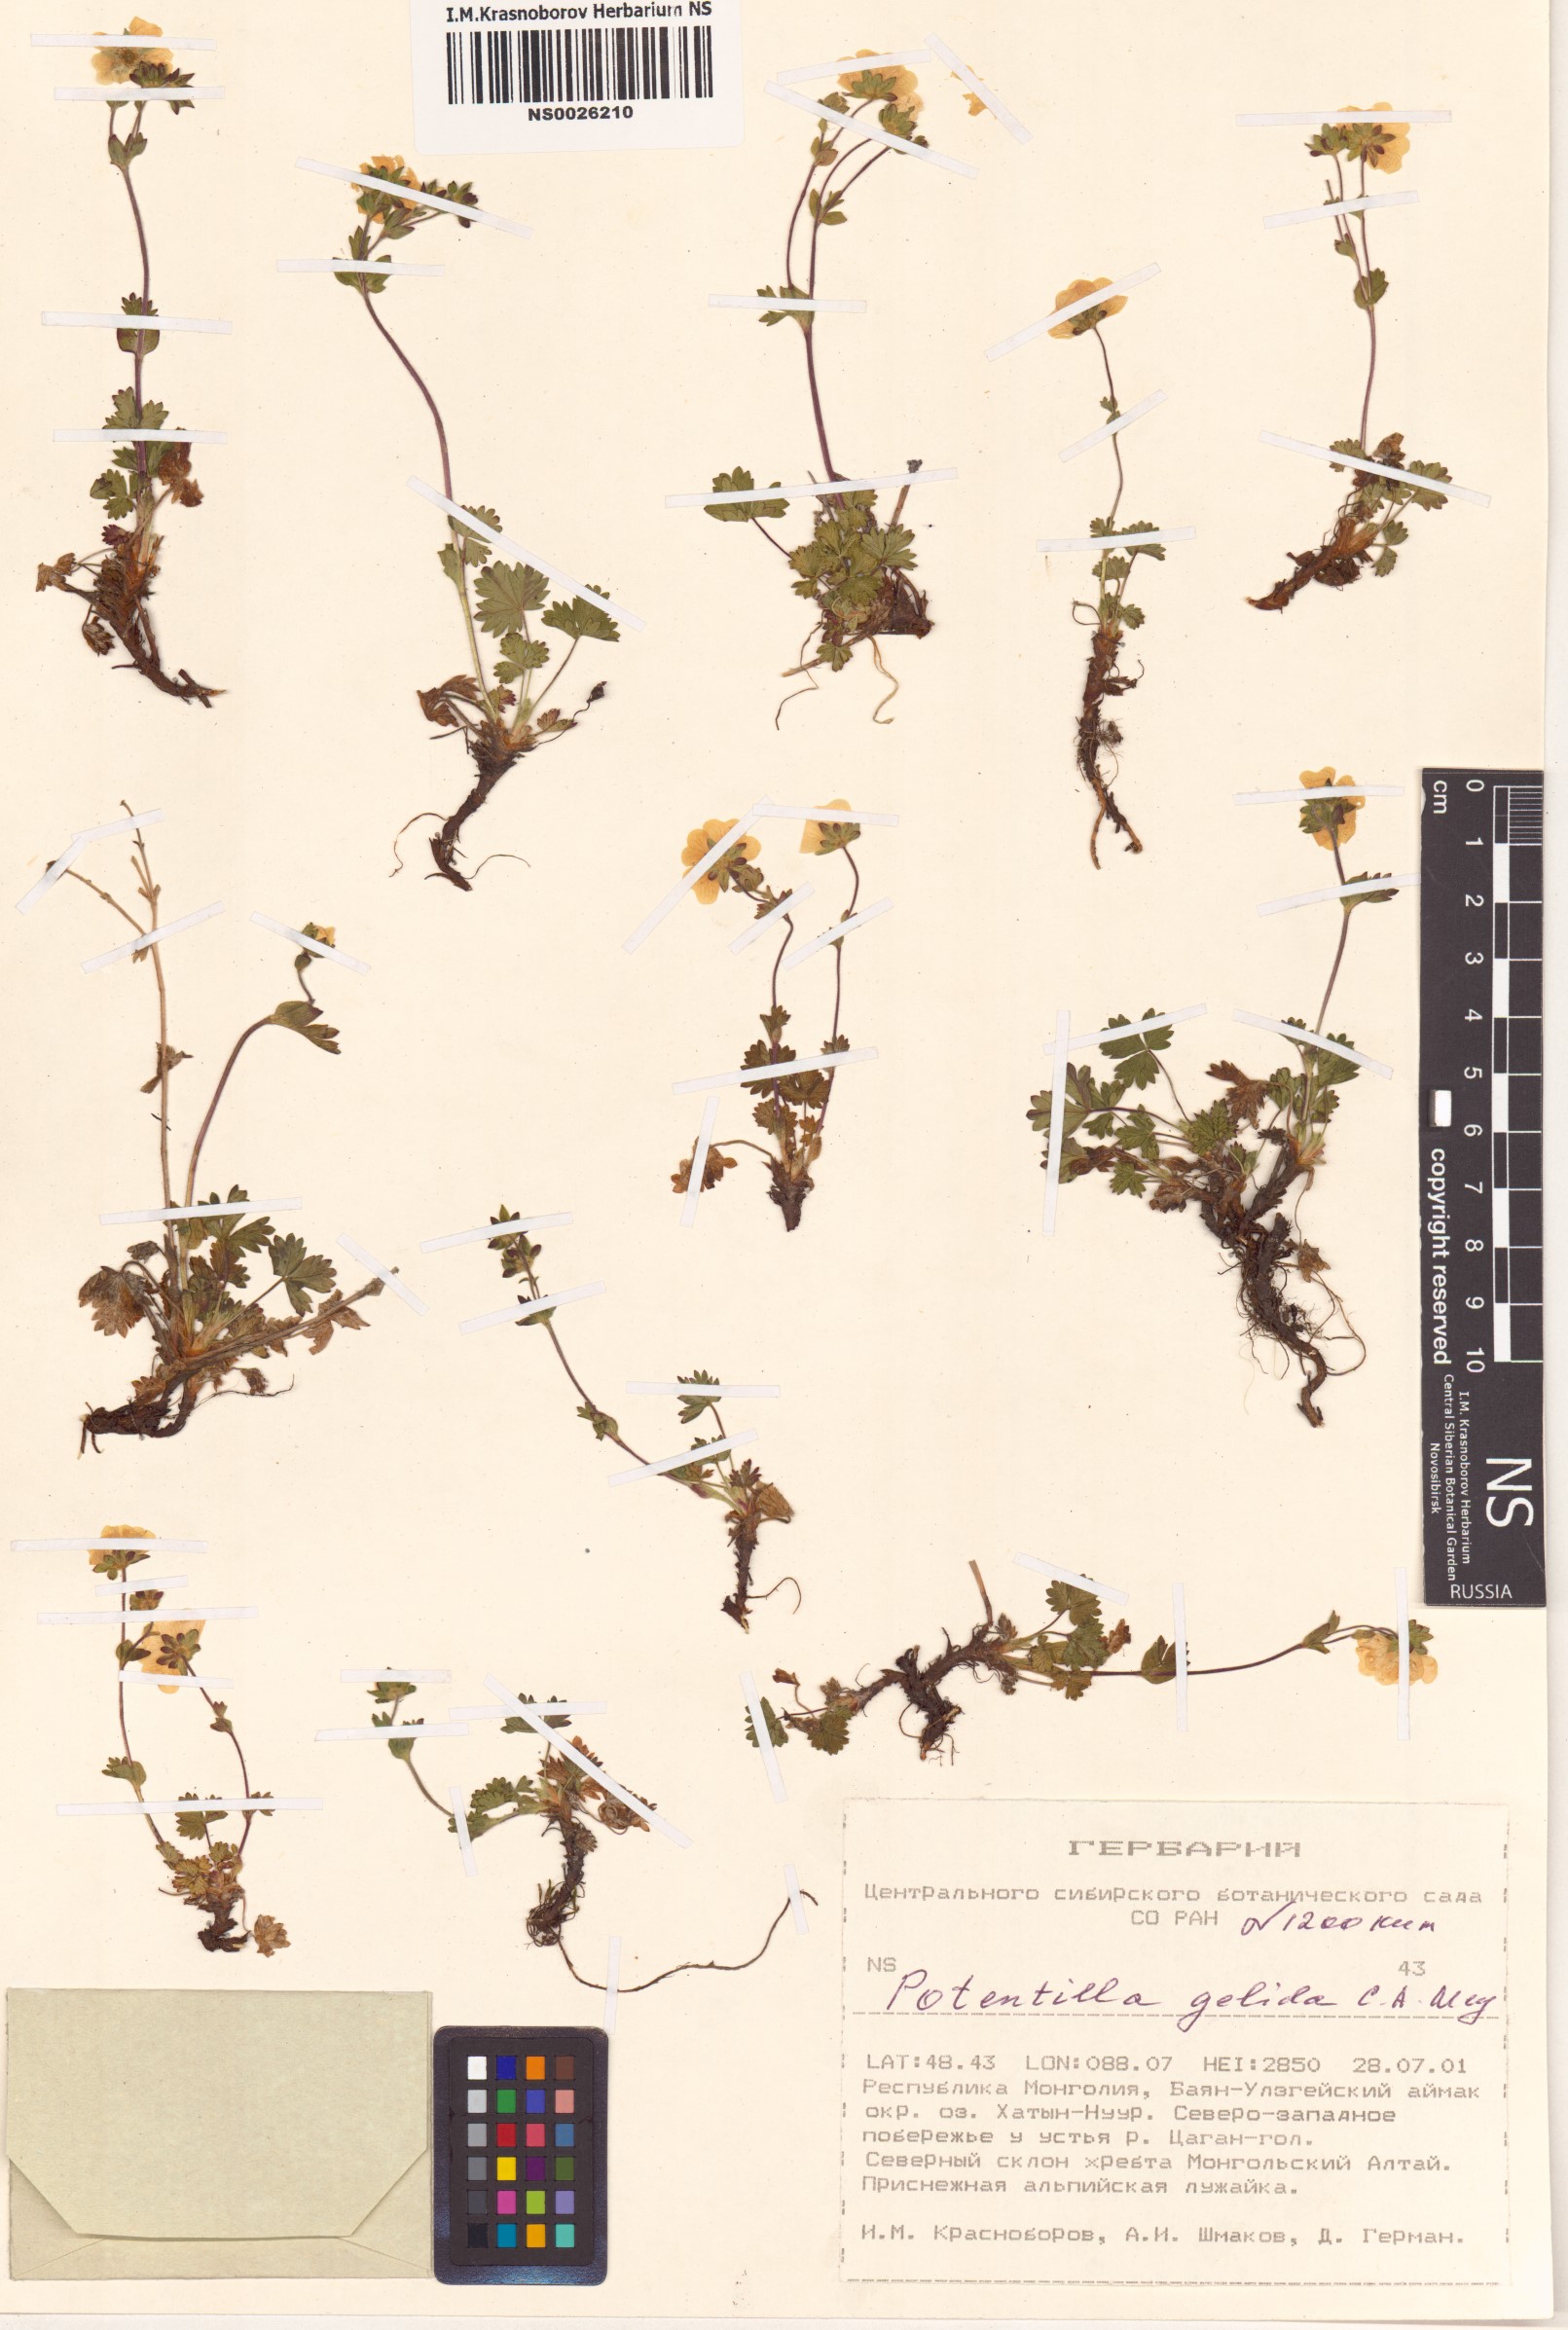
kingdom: Plantae
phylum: Tracheophyta
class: Magnoliopsida
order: Rosales
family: Rosaceae
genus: Potentilla
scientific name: Potentilla crantzii
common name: Alpine cinquefoil
